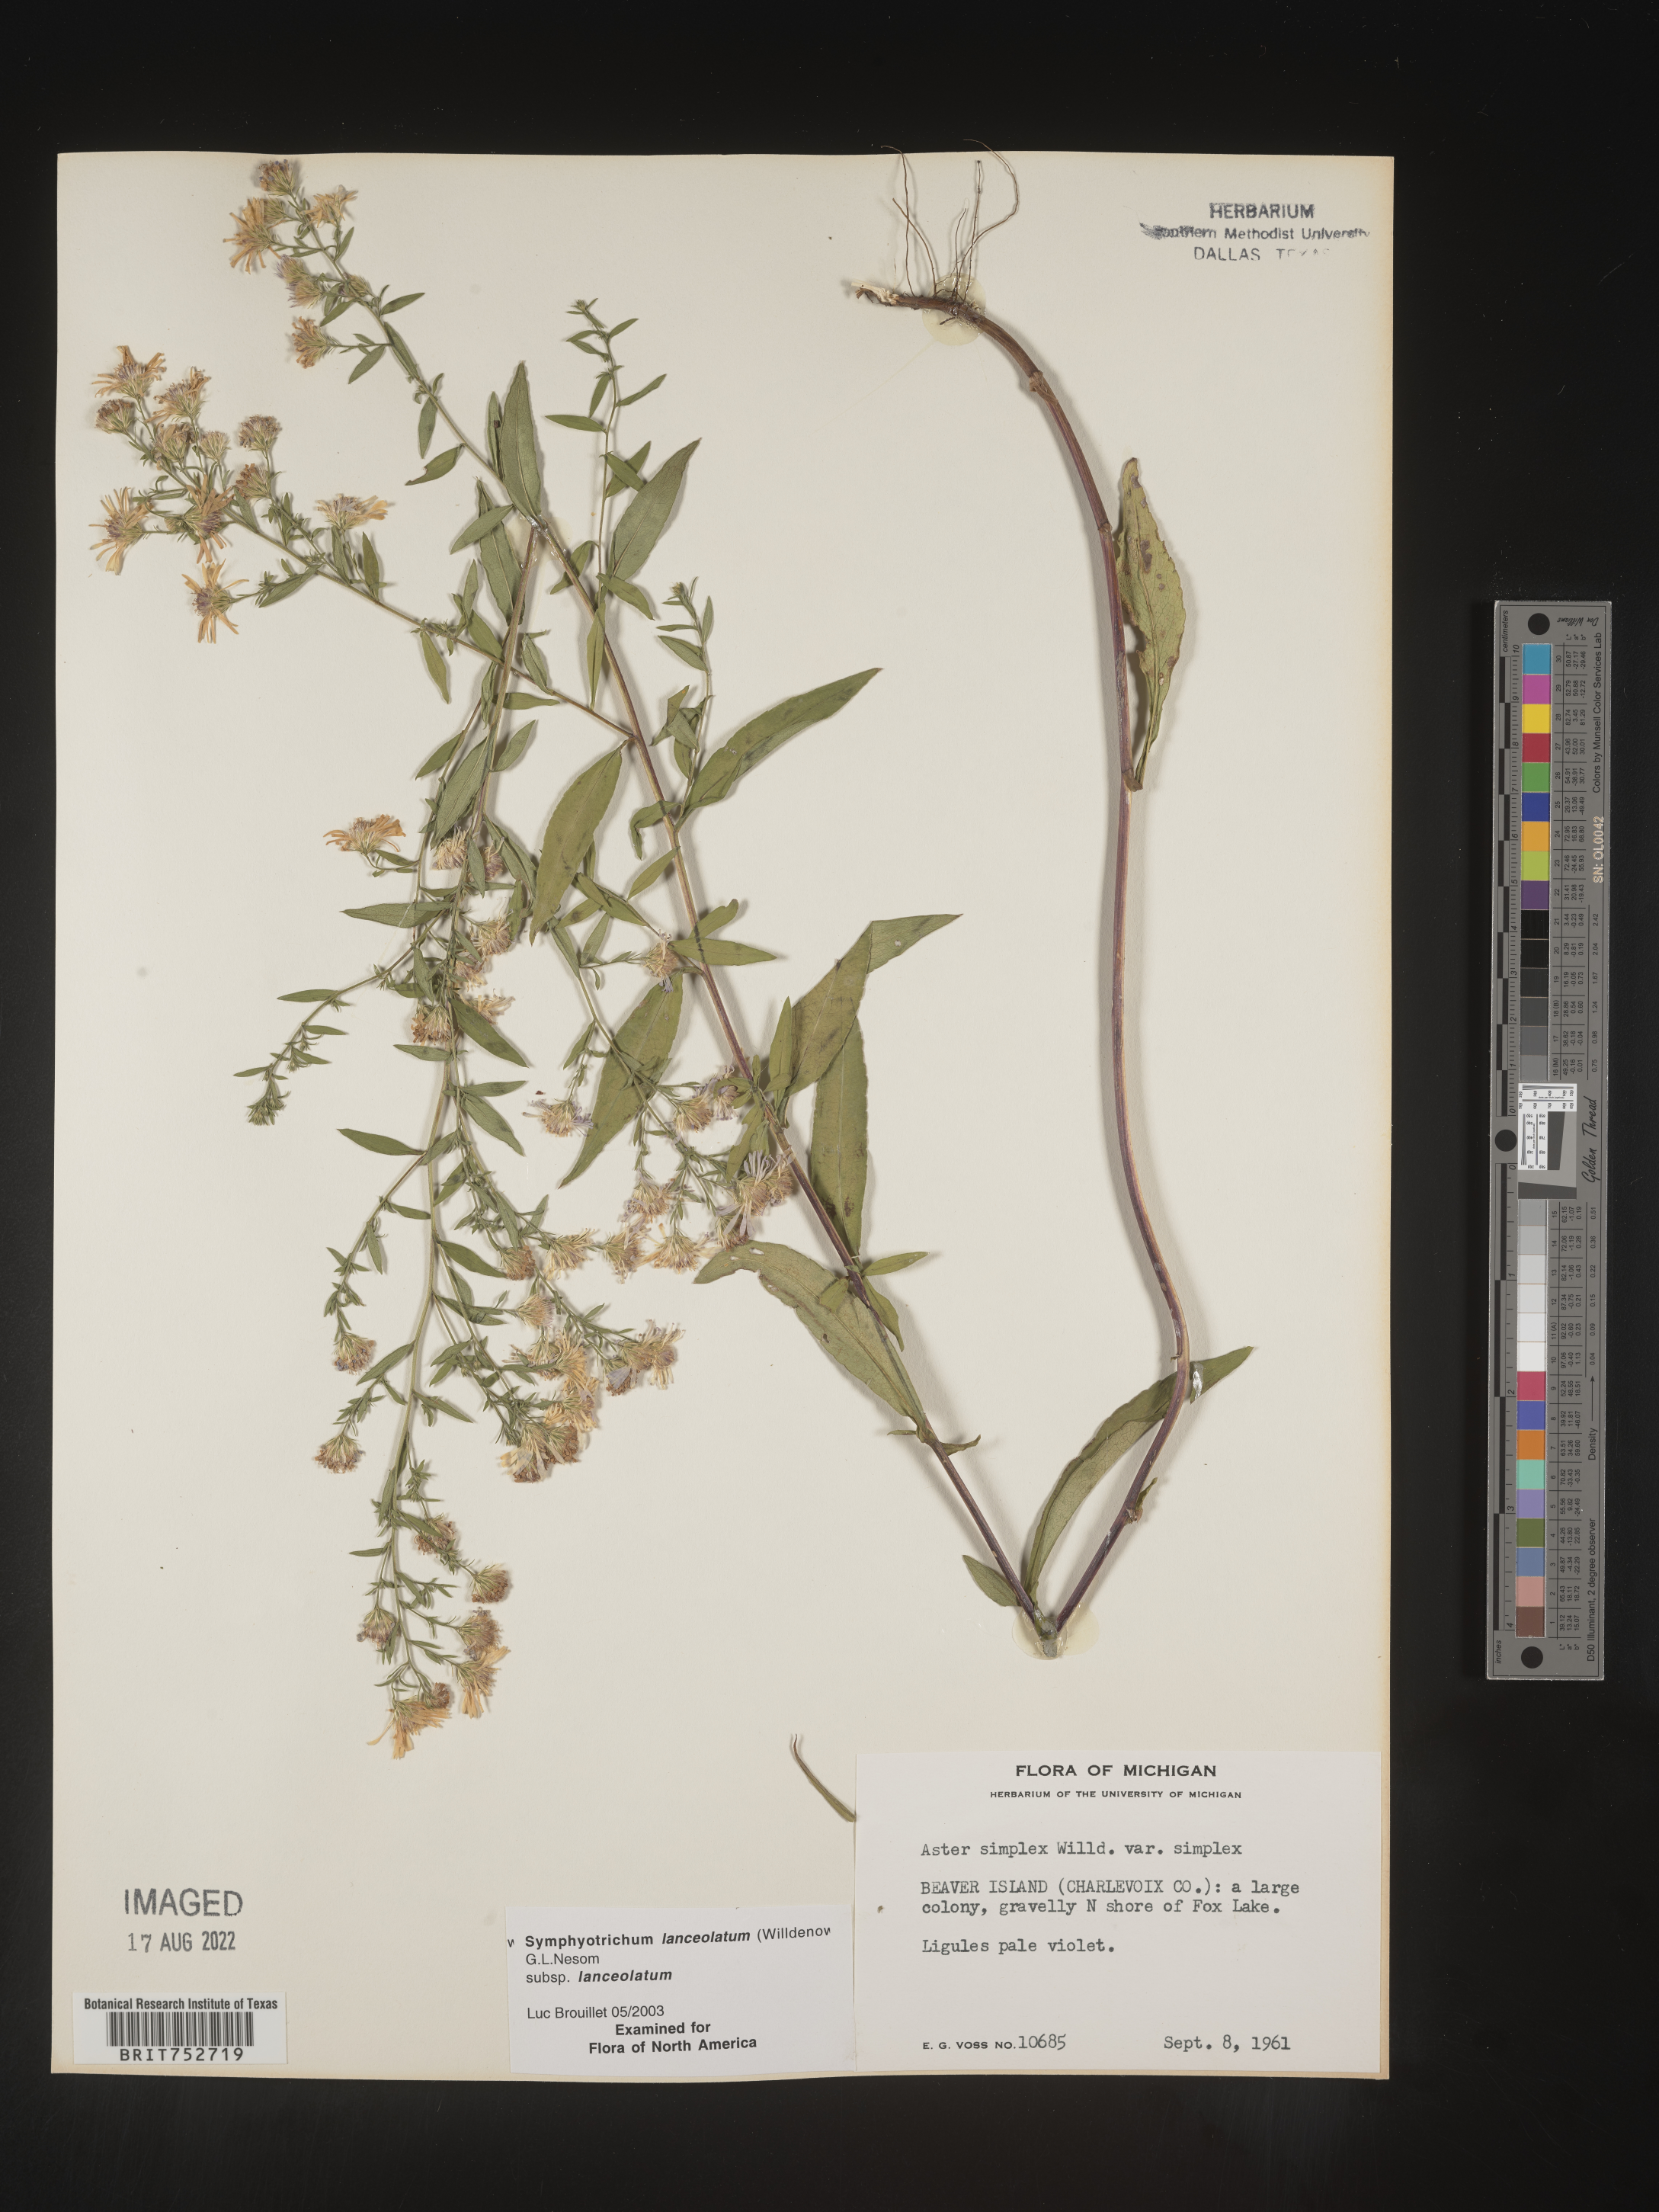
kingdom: Plantae
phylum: Tracheophyta
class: Magnoliopsida
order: Asterales
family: Asteraceae
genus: Symphyotrichum
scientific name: Symphyotrichum lanceolatum
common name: Panicled aster
